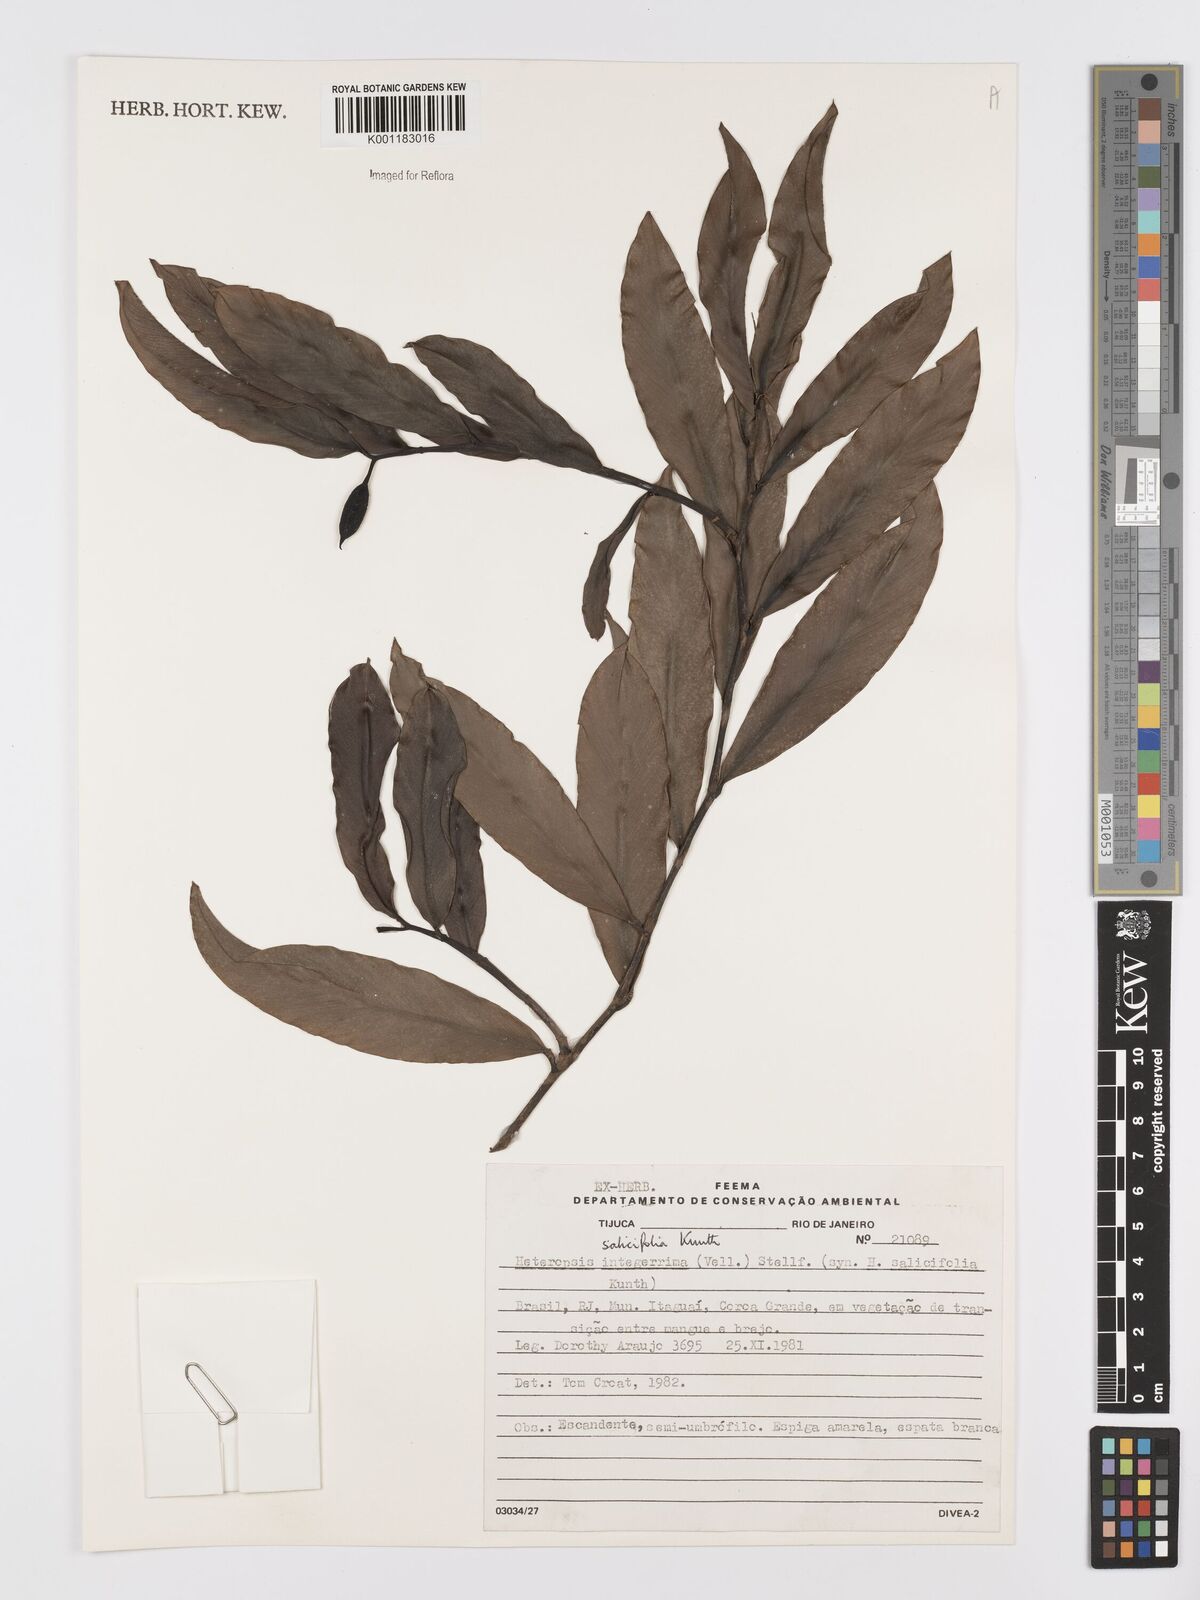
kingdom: Plantae
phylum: Tracheophyta
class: Liliopsida
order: Alismatales
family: Araceae
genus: Heteropsis
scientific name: Heteropsis salicifolia
